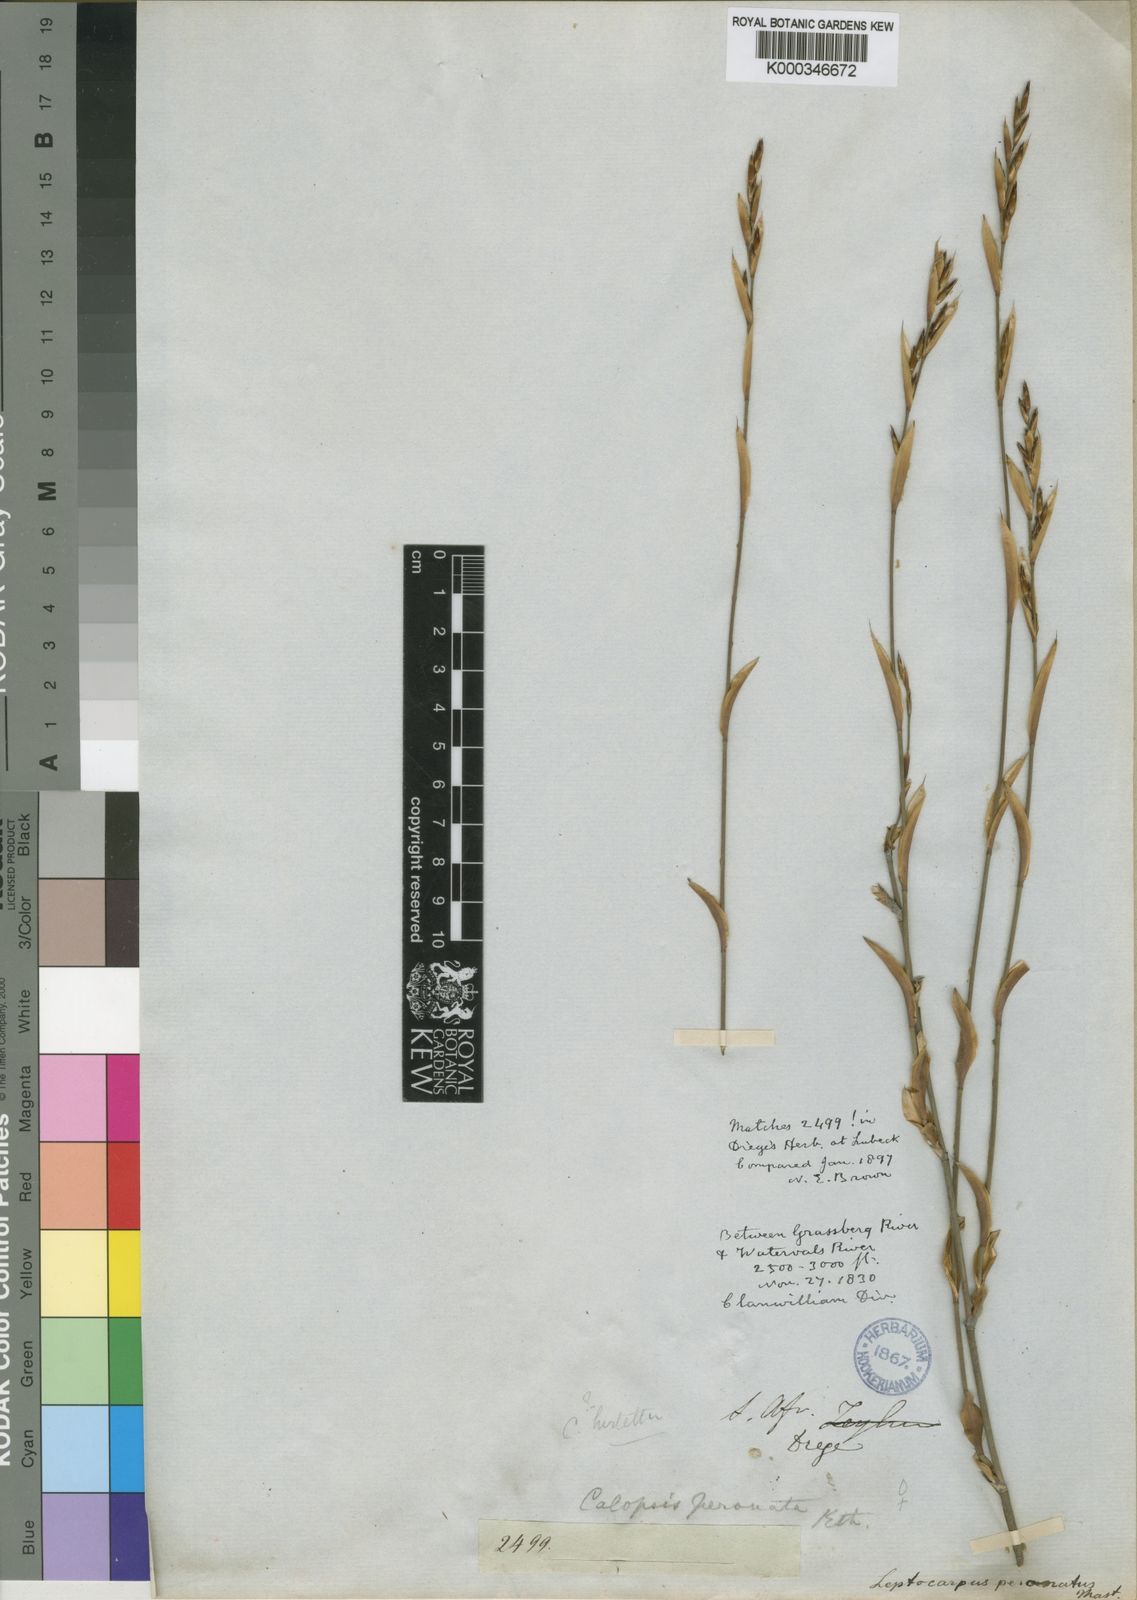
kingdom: Plantae
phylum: Tracheophyta
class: Liliopsida
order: Poales
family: Restionaceae
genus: Restio
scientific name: Restio vimineus
